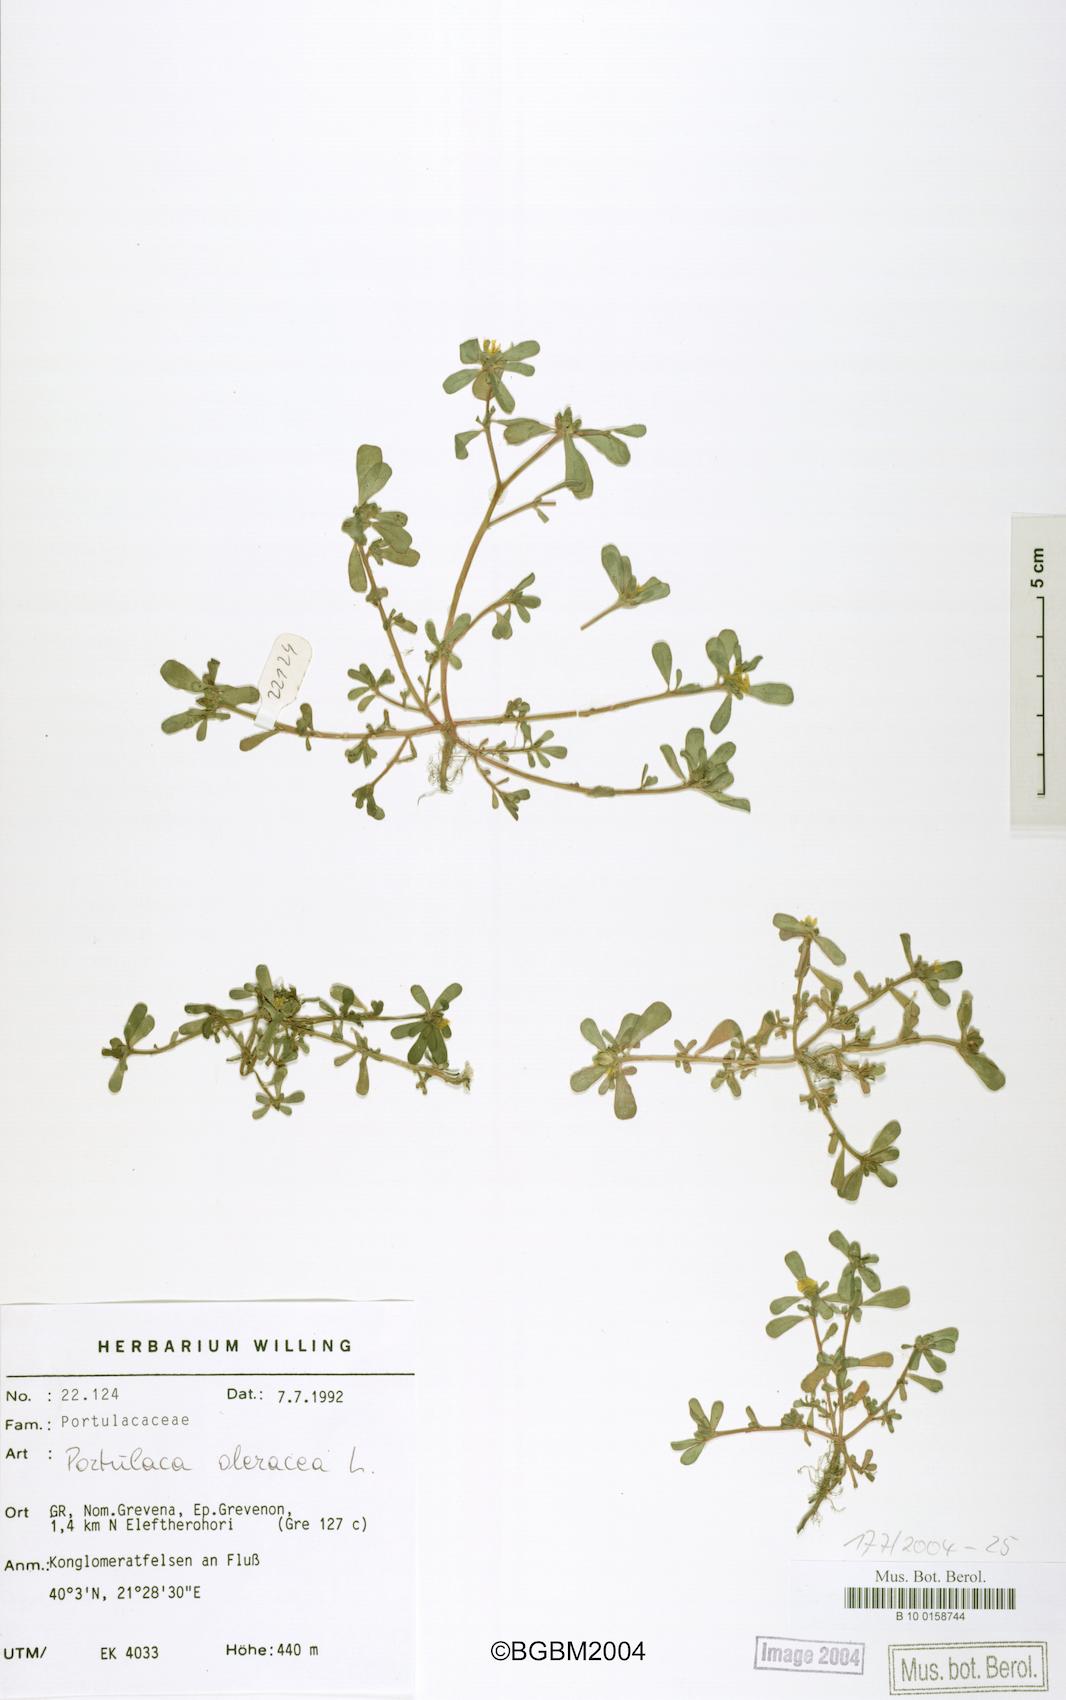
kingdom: Plantae
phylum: Tracheophyta
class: Magnoliopsida
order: Caryophyllales
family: Portulacaceae
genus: Portulaca
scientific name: Portulaca oleracea
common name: Common purslane
